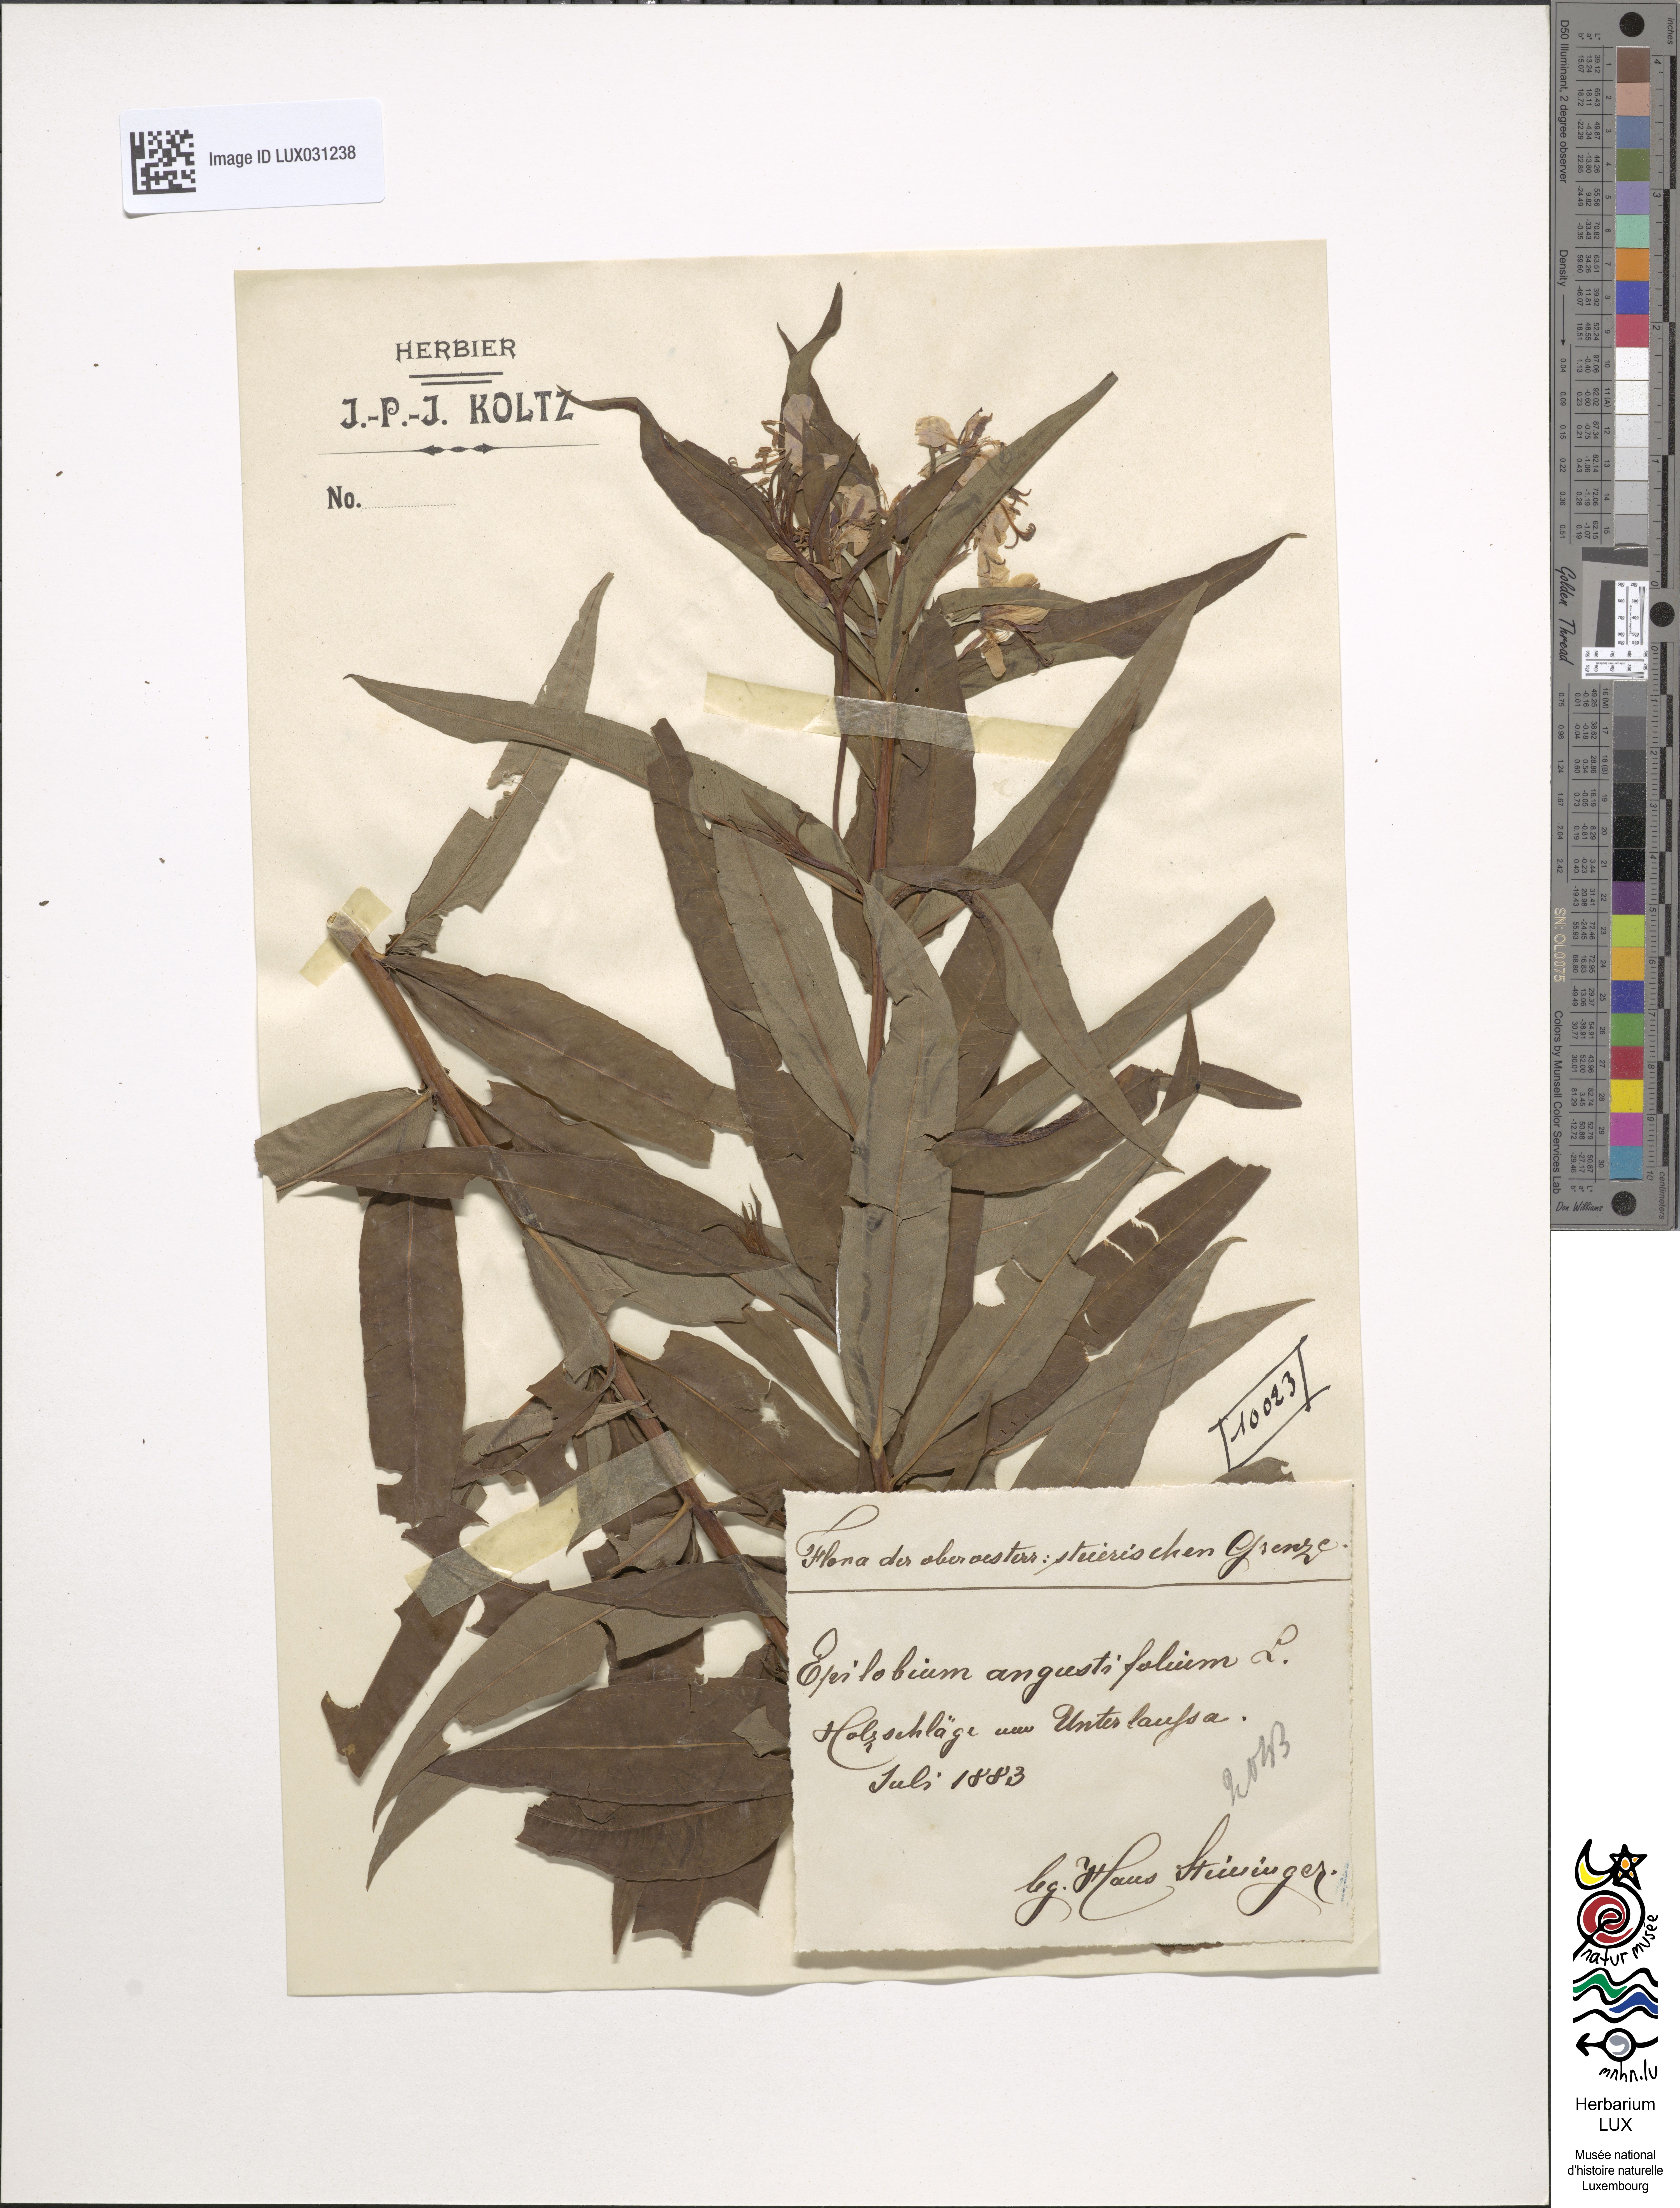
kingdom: Plantae
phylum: Tracheophyta
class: Magnoliopsida
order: Myrtales
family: Onagraceae
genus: Chamaenerion
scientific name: Chamaenerion angustifolium
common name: Fireweed
